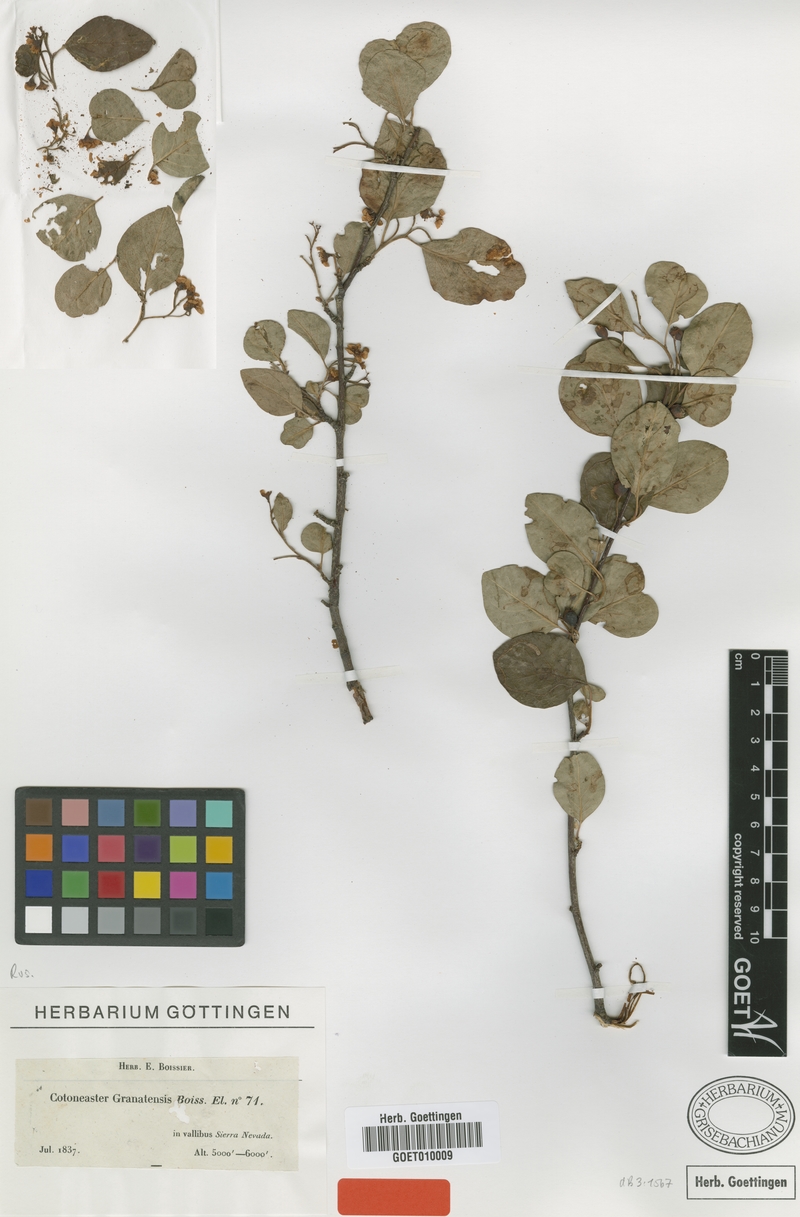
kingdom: Plantae
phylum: Tracheophyta
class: Magnoliopsida
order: Rosales
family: Rosaceae
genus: Cotoneaster
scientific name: Cotoneaster granatensis
